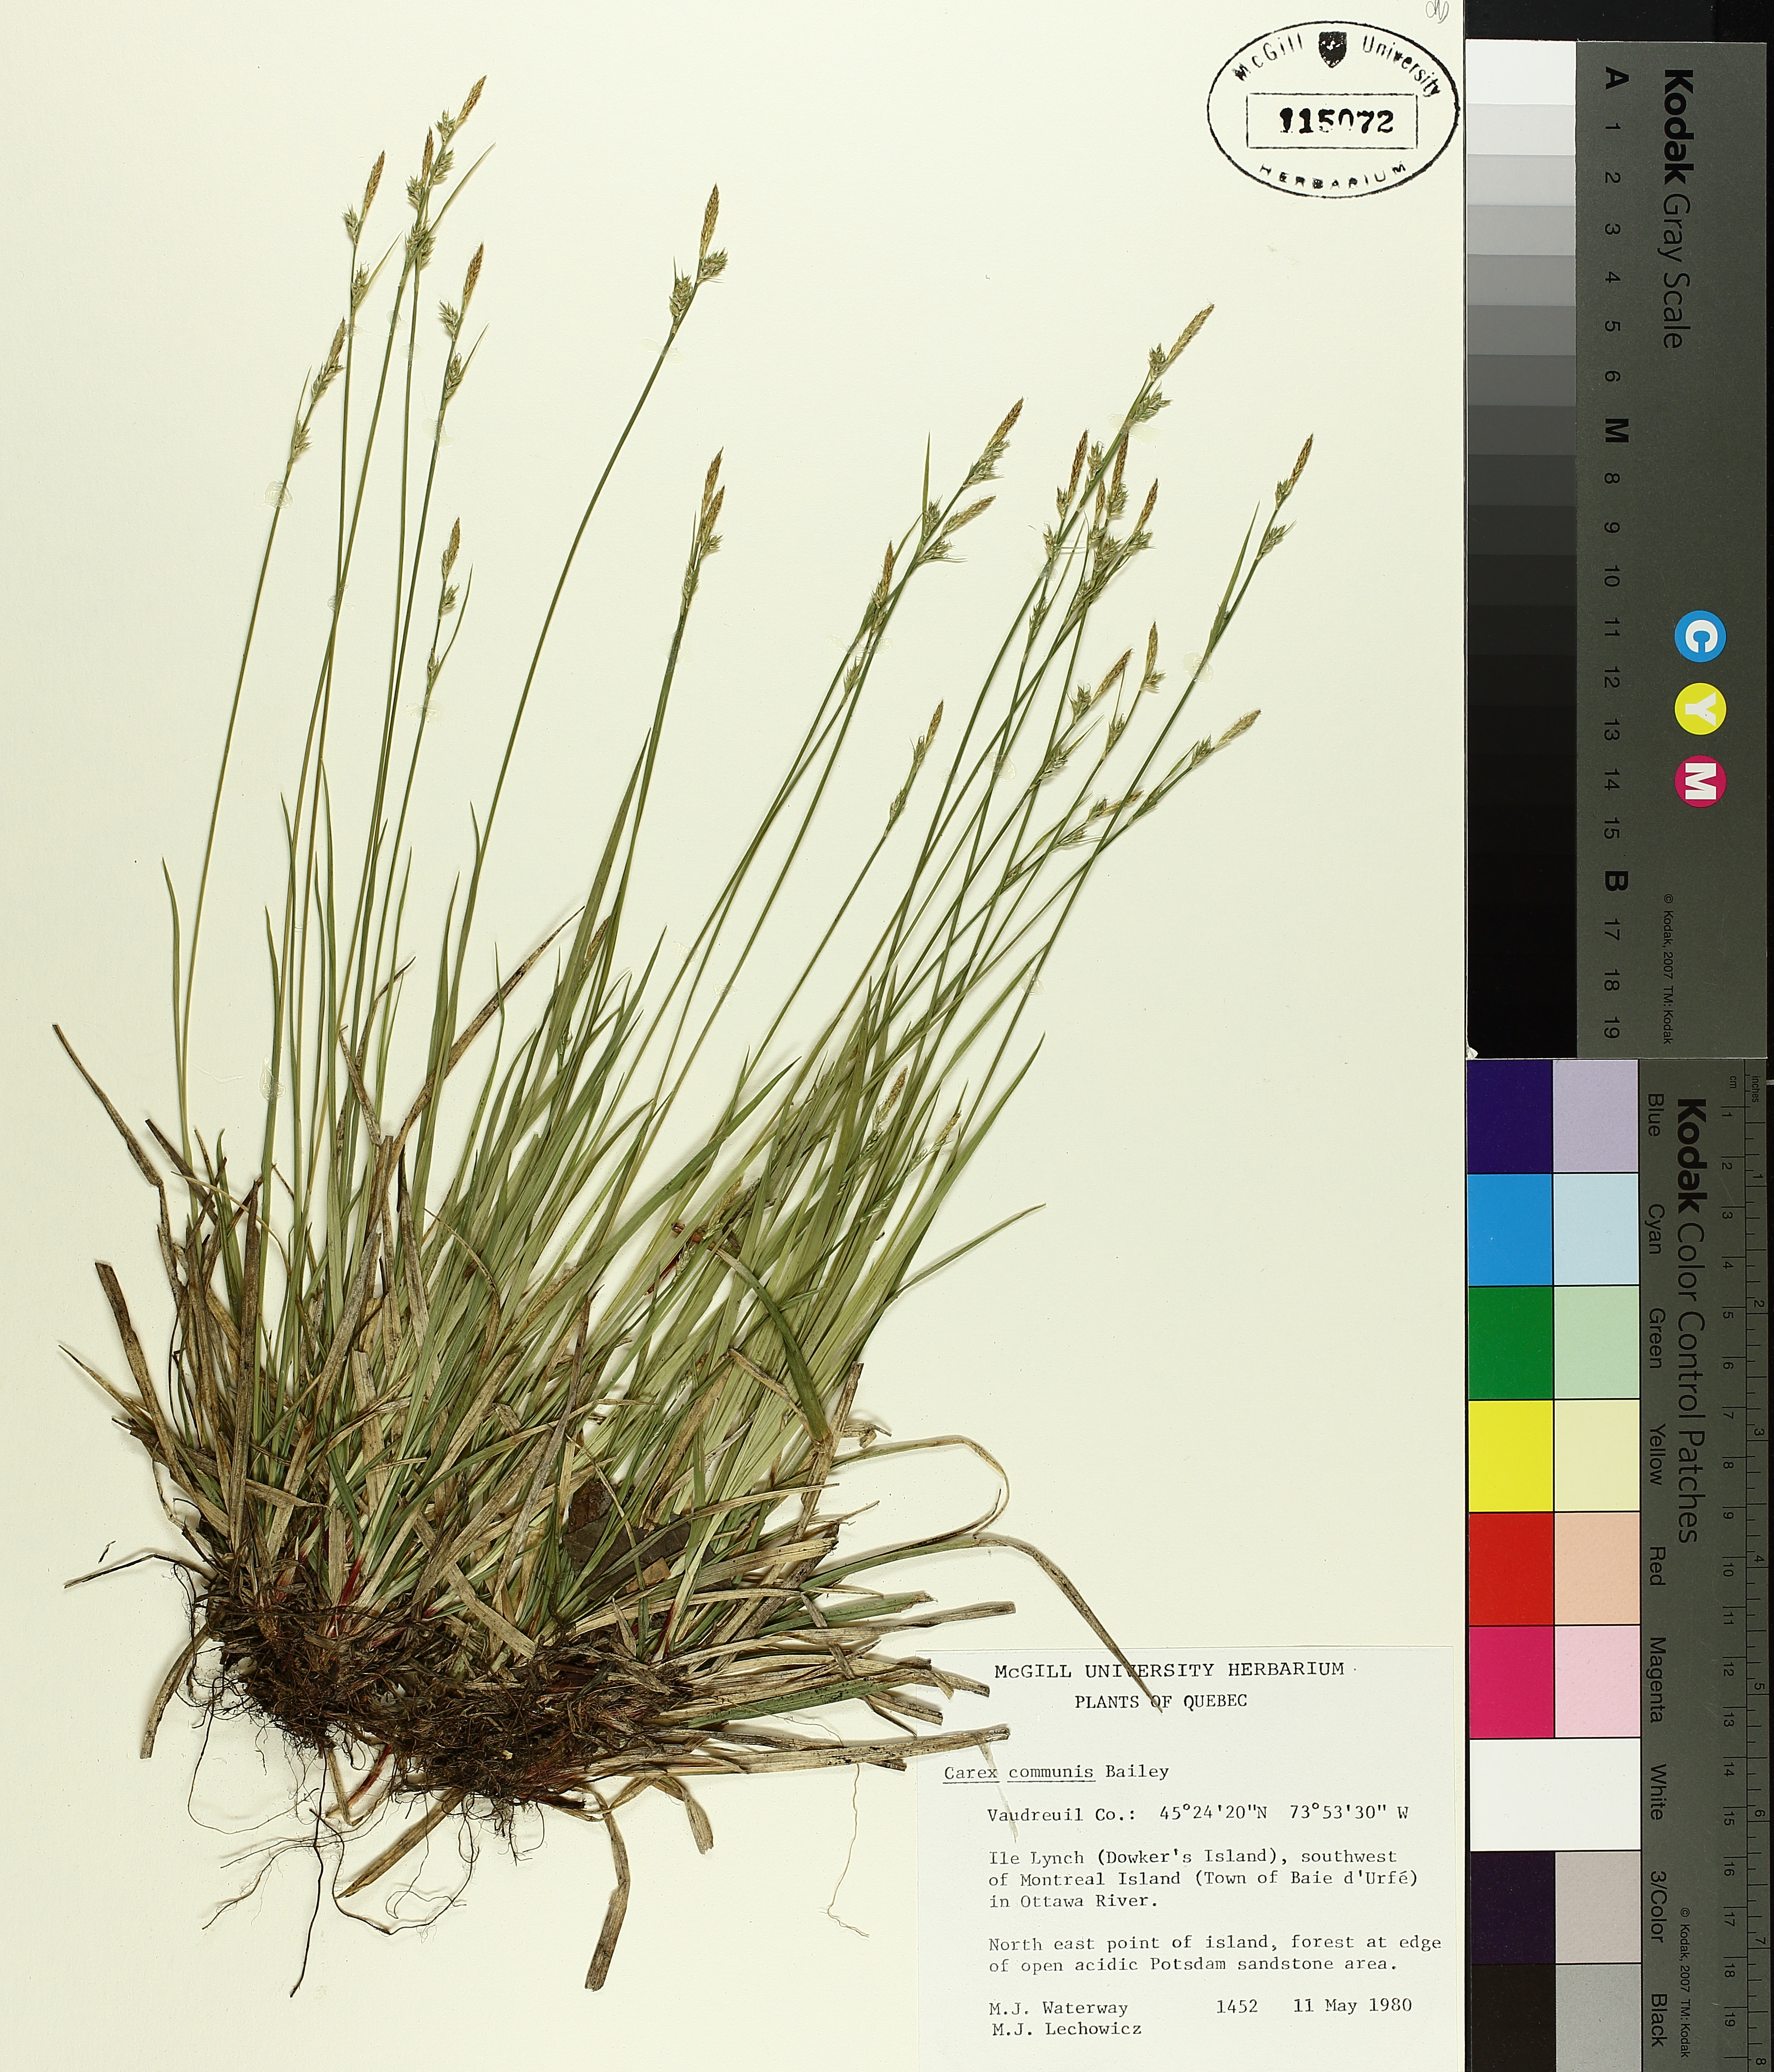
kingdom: Plantae
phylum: Tracheophyta
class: Liliopsida
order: Poales
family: Cyperaceae
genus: Carex
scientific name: Carex communis
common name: Colonial oak sedge
